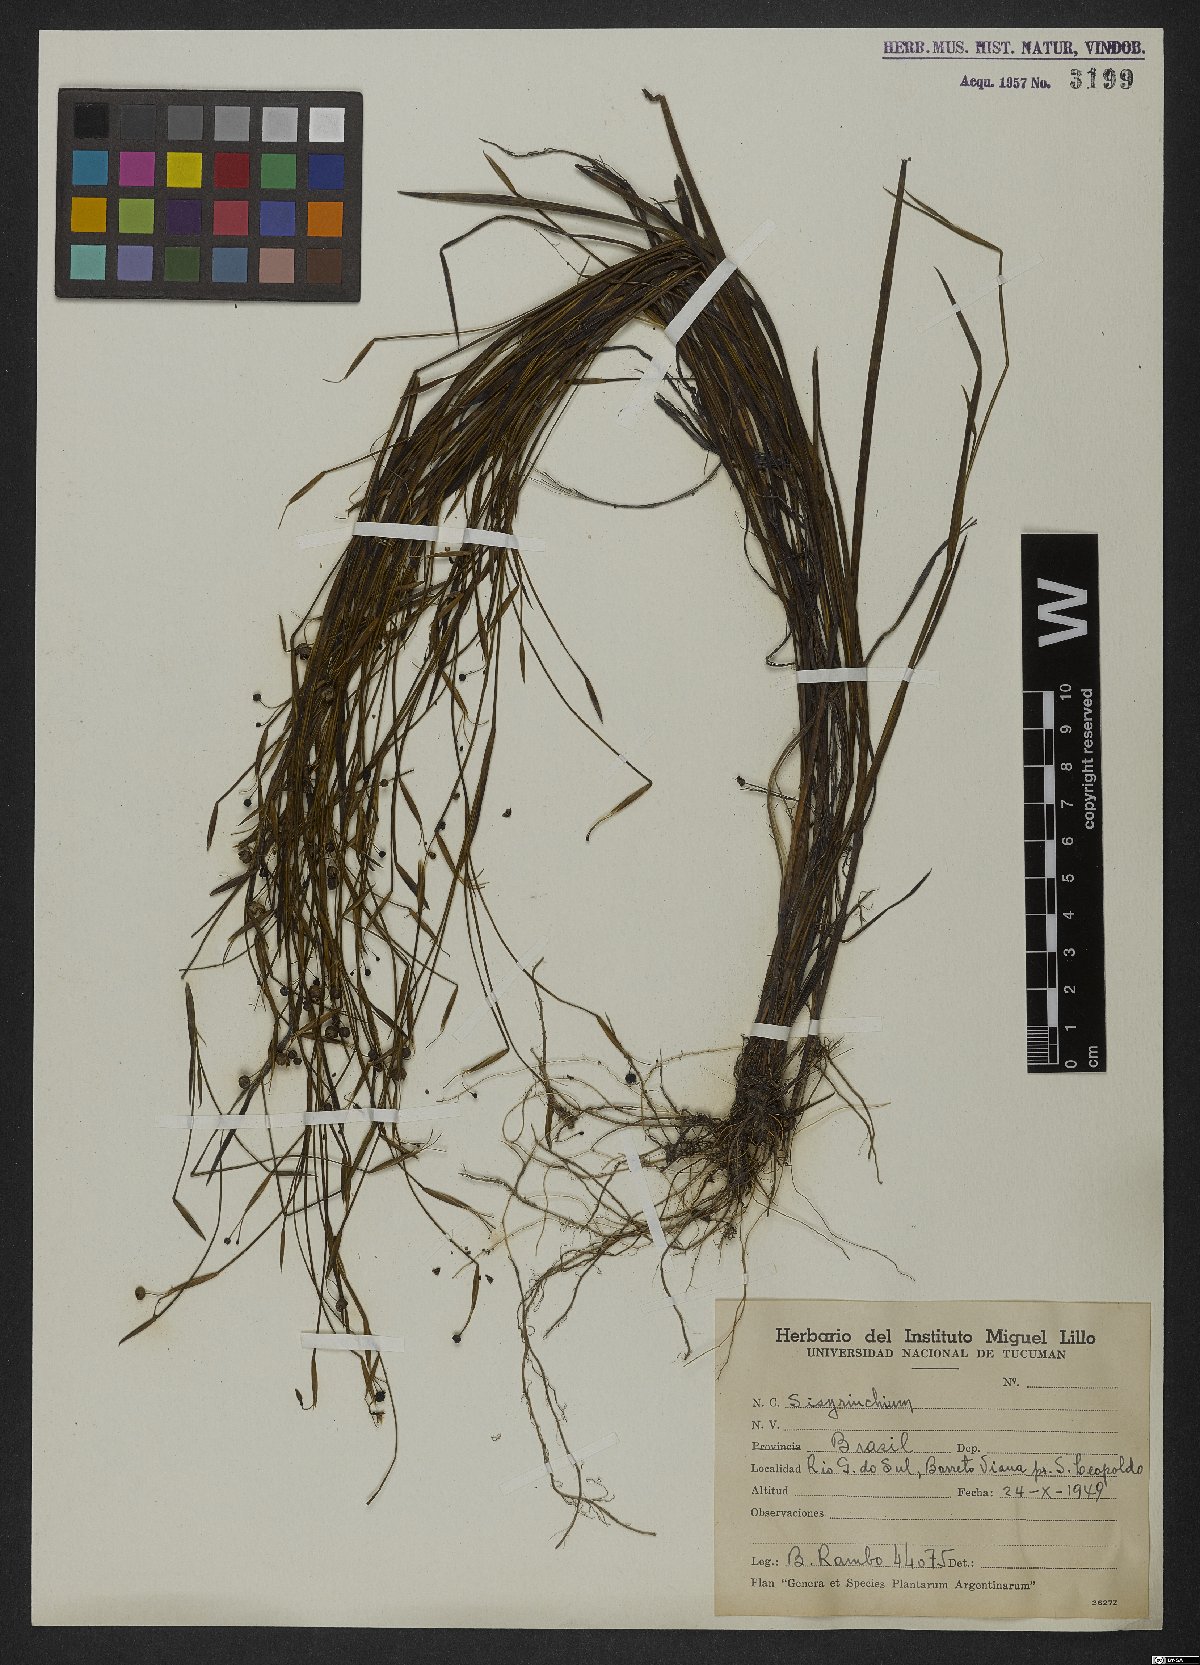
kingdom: Plantae
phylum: Tracheophyta
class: Liliopsida
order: Asparagales
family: Iridaceae
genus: Sisyrinchium
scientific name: Sisyrinchium wettsteinii
